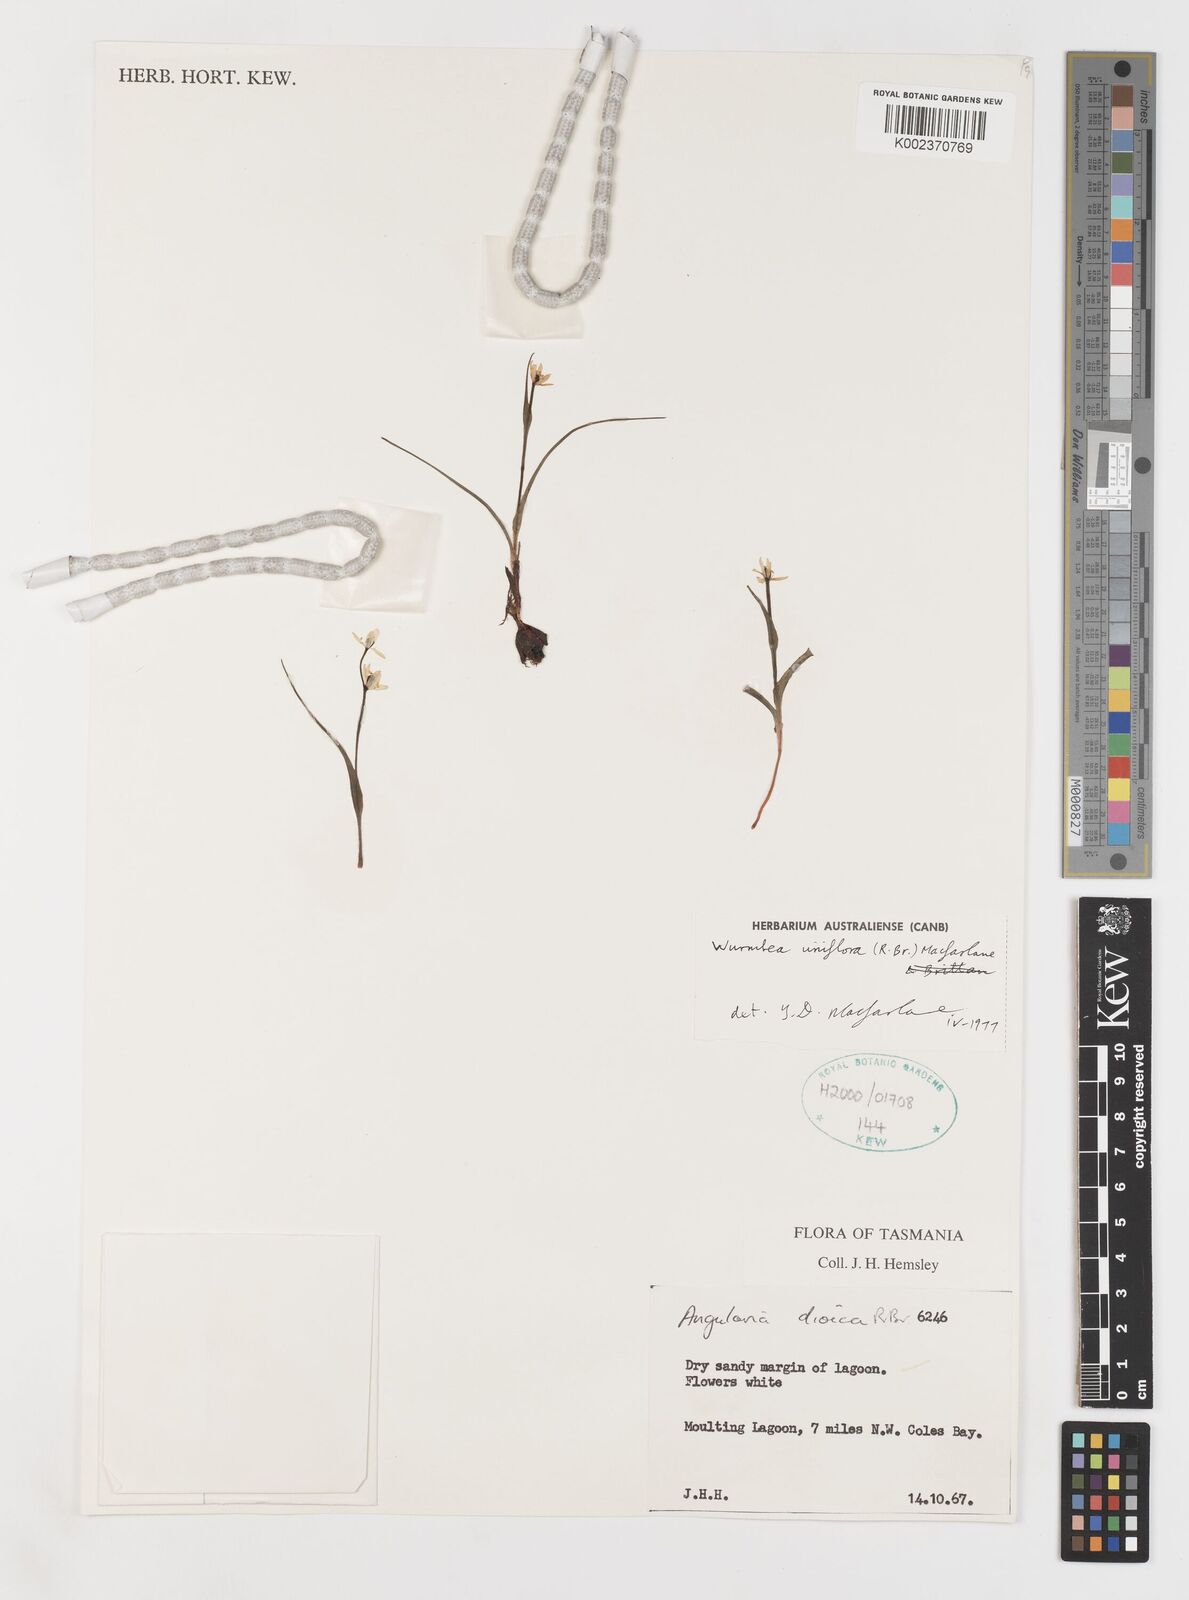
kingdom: Plantae
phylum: Tracheophyta
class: Liliopsida
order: Liliales
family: Colchicaceae
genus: Wurmbea
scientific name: Wurmbea uniflora
